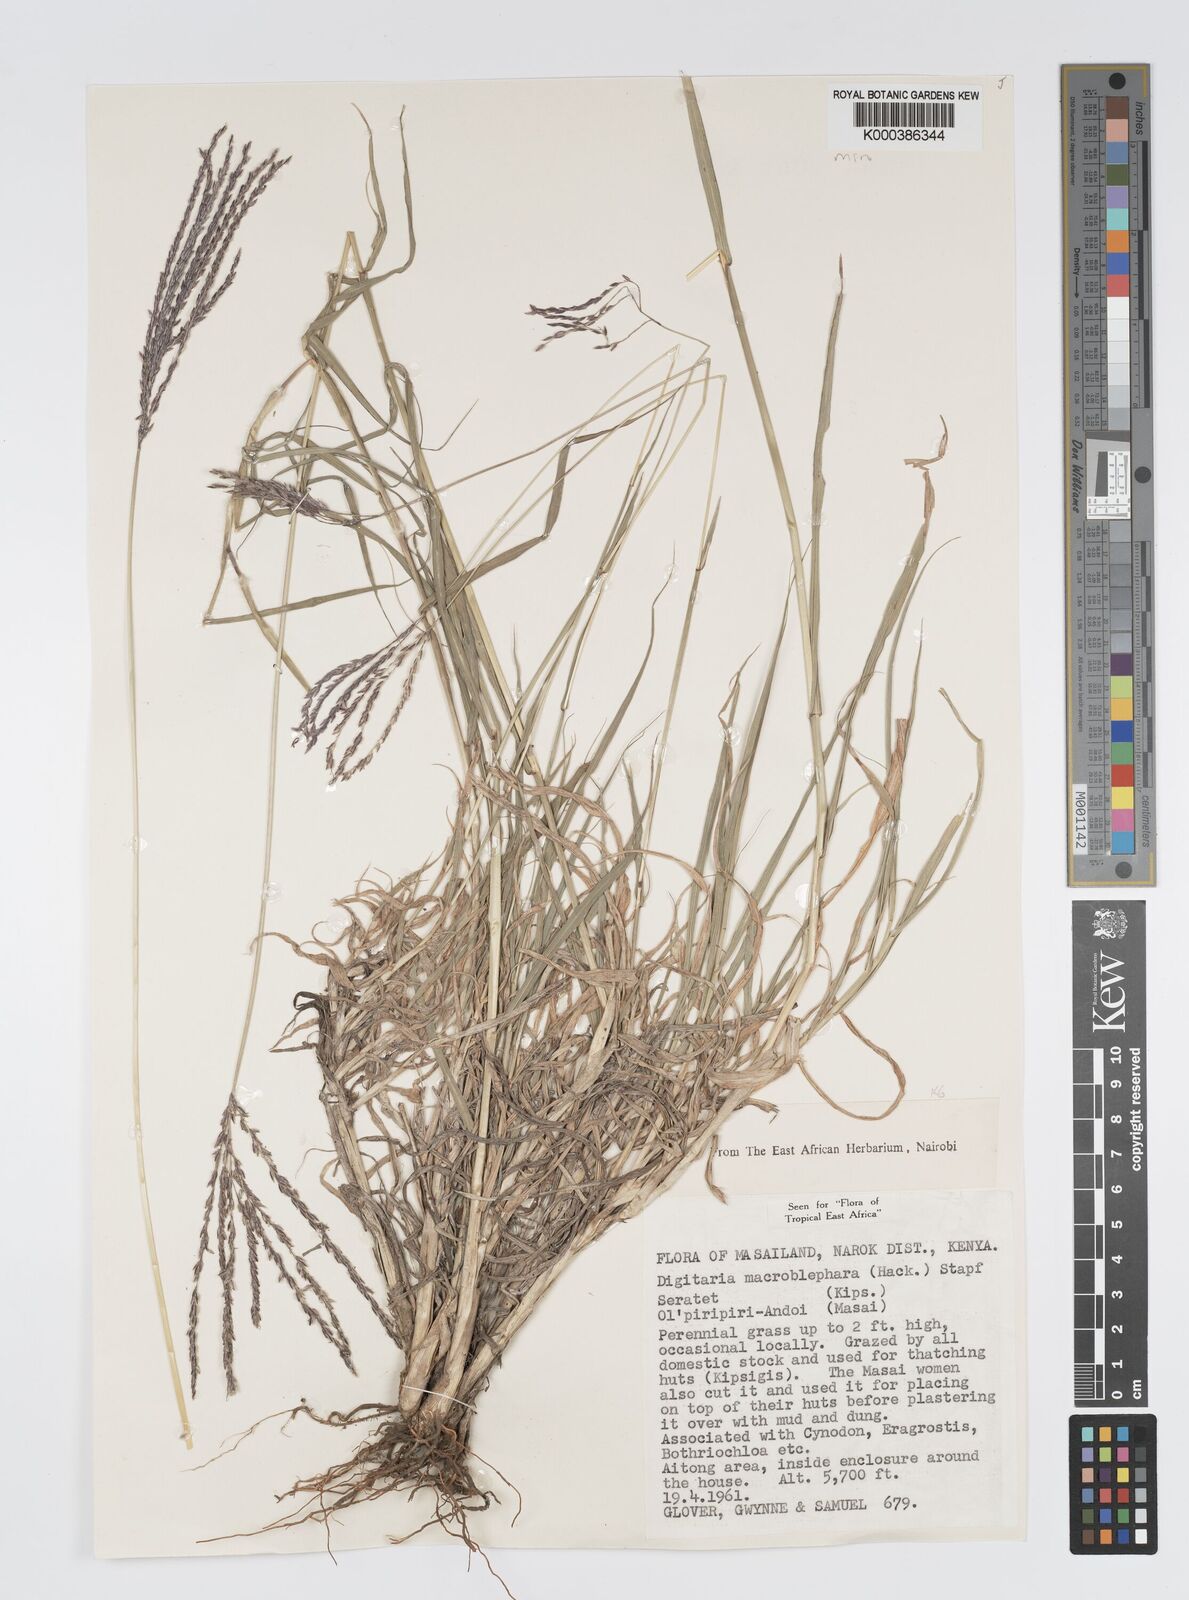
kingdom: Plantae
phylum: Tracheophyta
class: Liliopsida
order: Poales
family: Poaceae
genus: Digitaria
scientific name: Digitaria macroblephara
